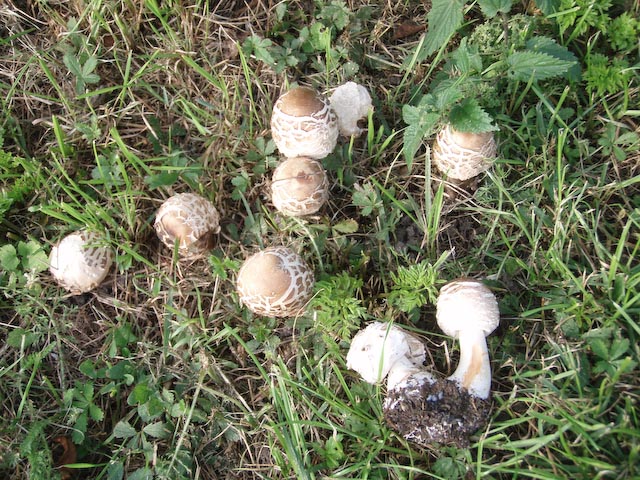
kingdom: Fungi
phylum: Basidiomycota
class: Agaricomycetes
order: Agaricales
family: Agaricaceae
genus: Chlorophyllum
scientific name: Chlorophyllum rhacodes
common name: ægte rabarberhat
